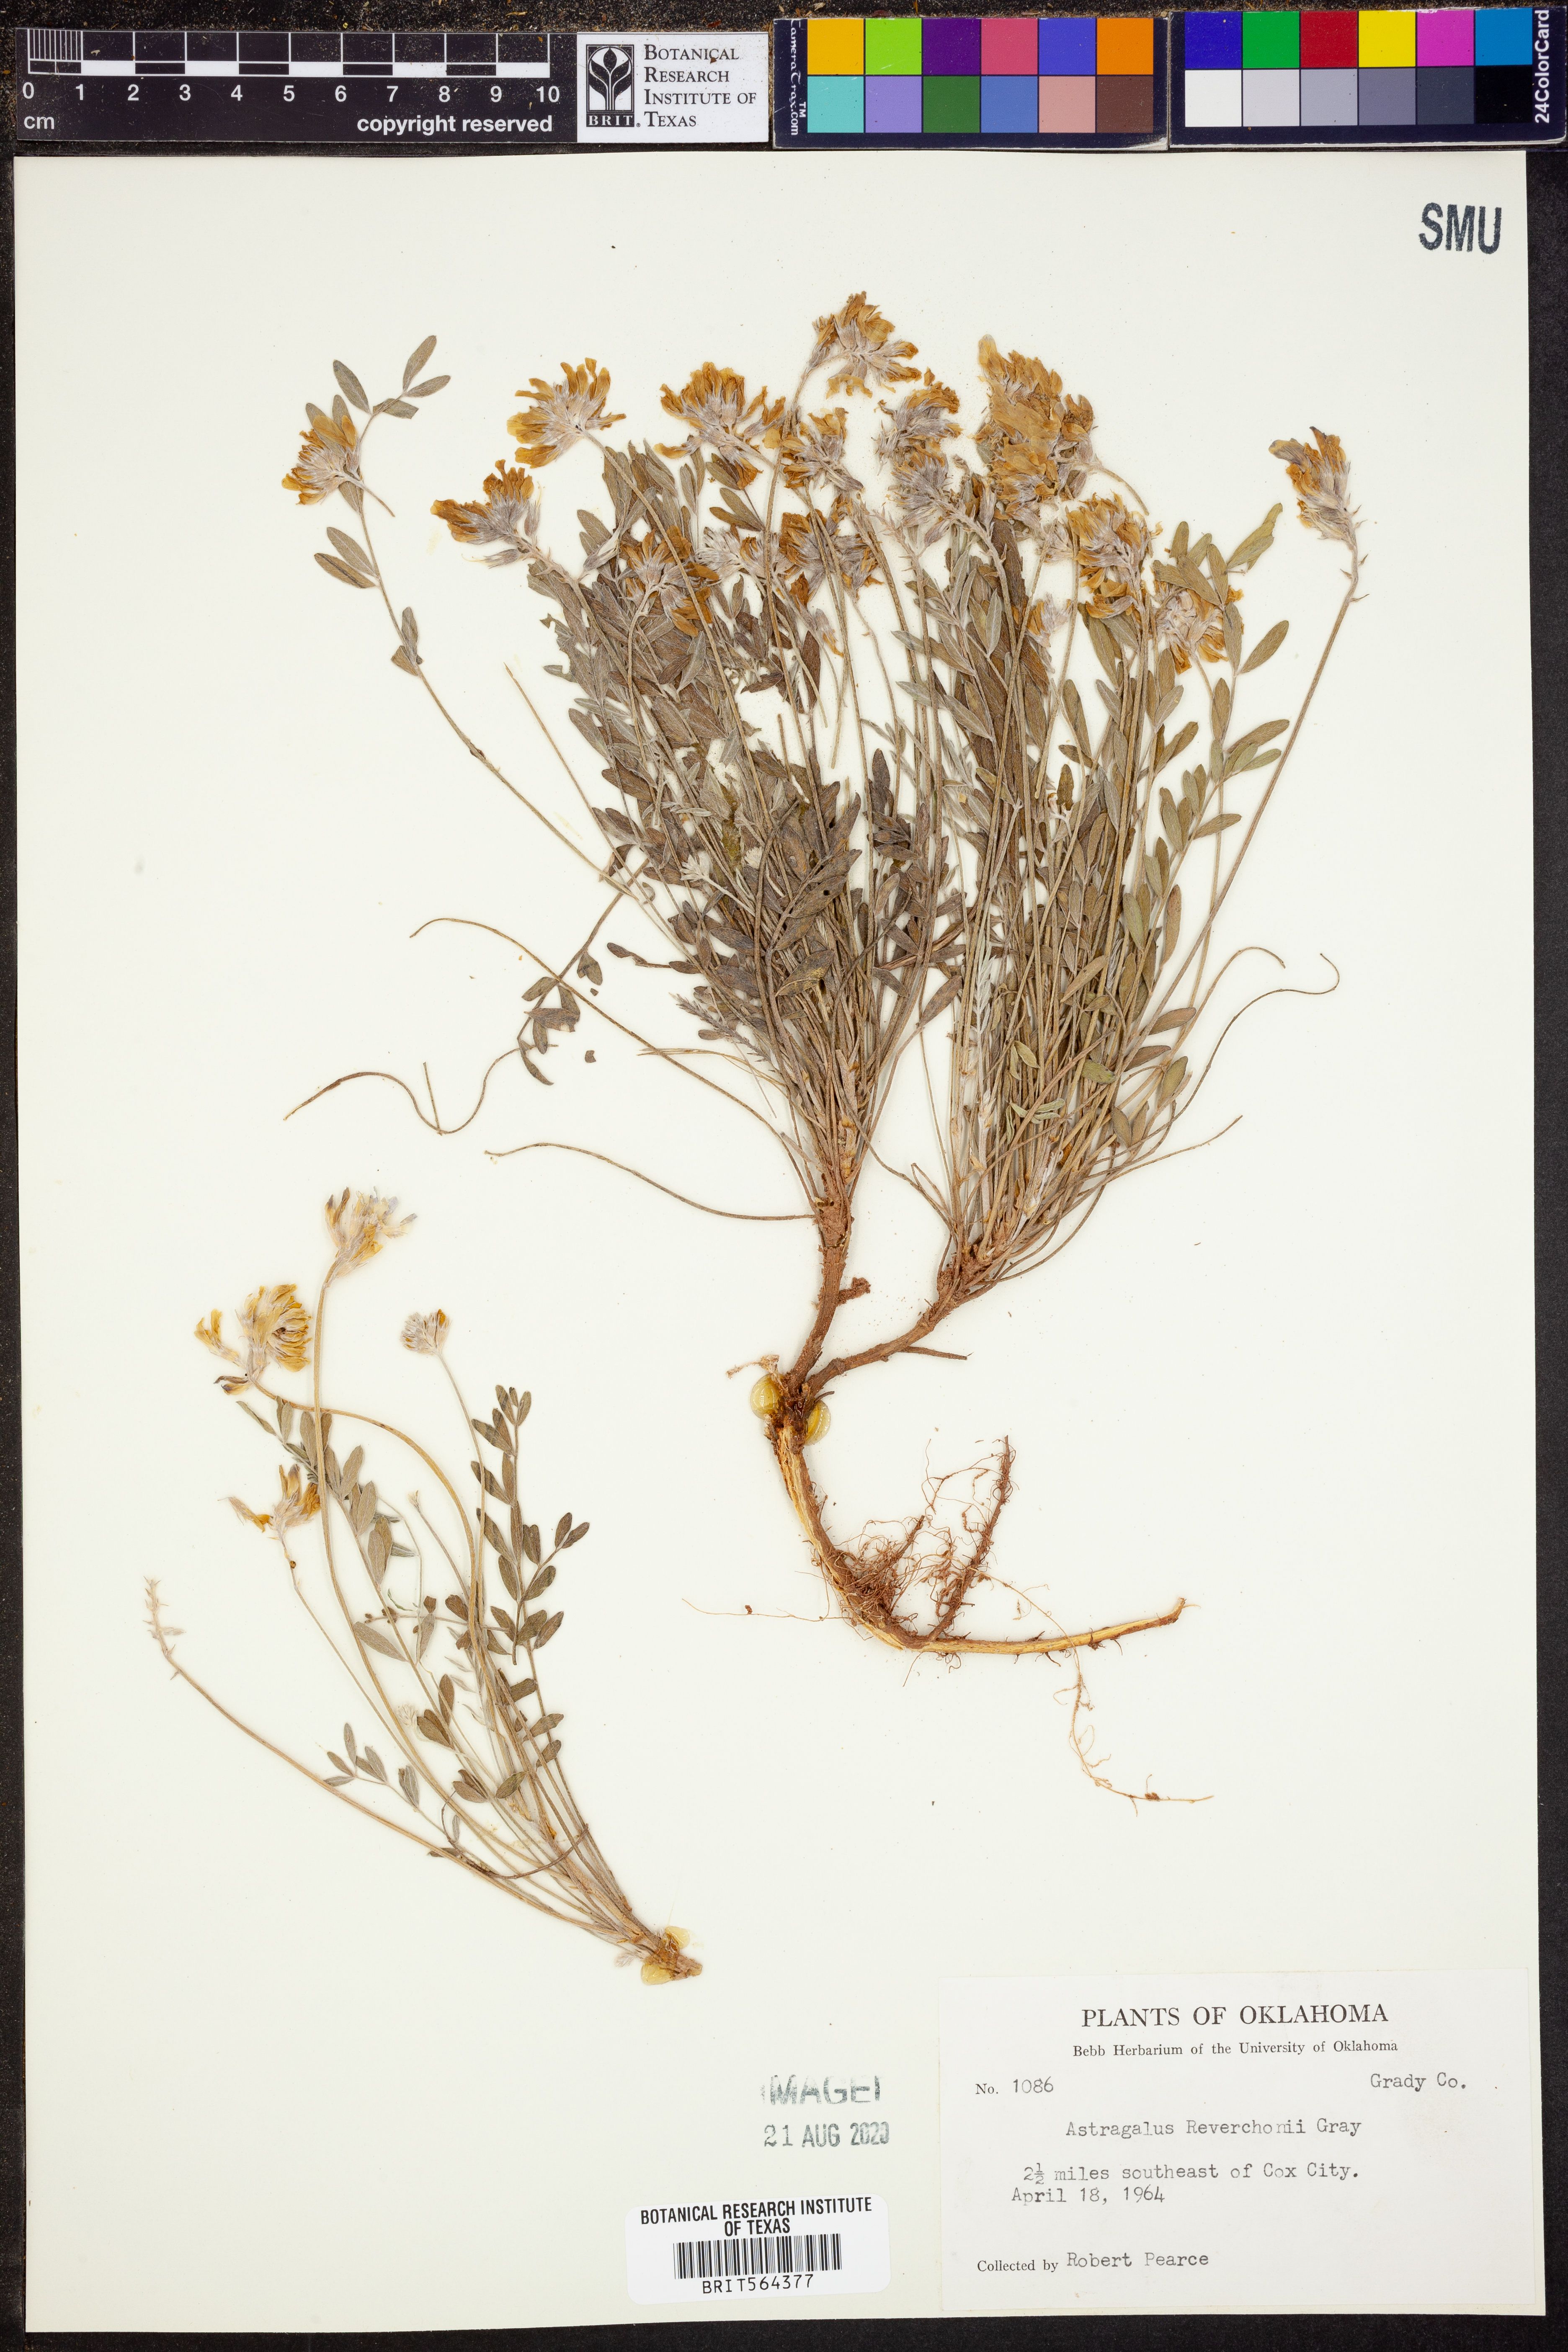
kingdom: Plantae
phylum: Tracheophyta
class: Magnoliopsida
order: Fabales
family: Fabaceae
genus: Astragalus
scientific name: Astragalus lotiflorus
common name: Lotus milk-vetch
